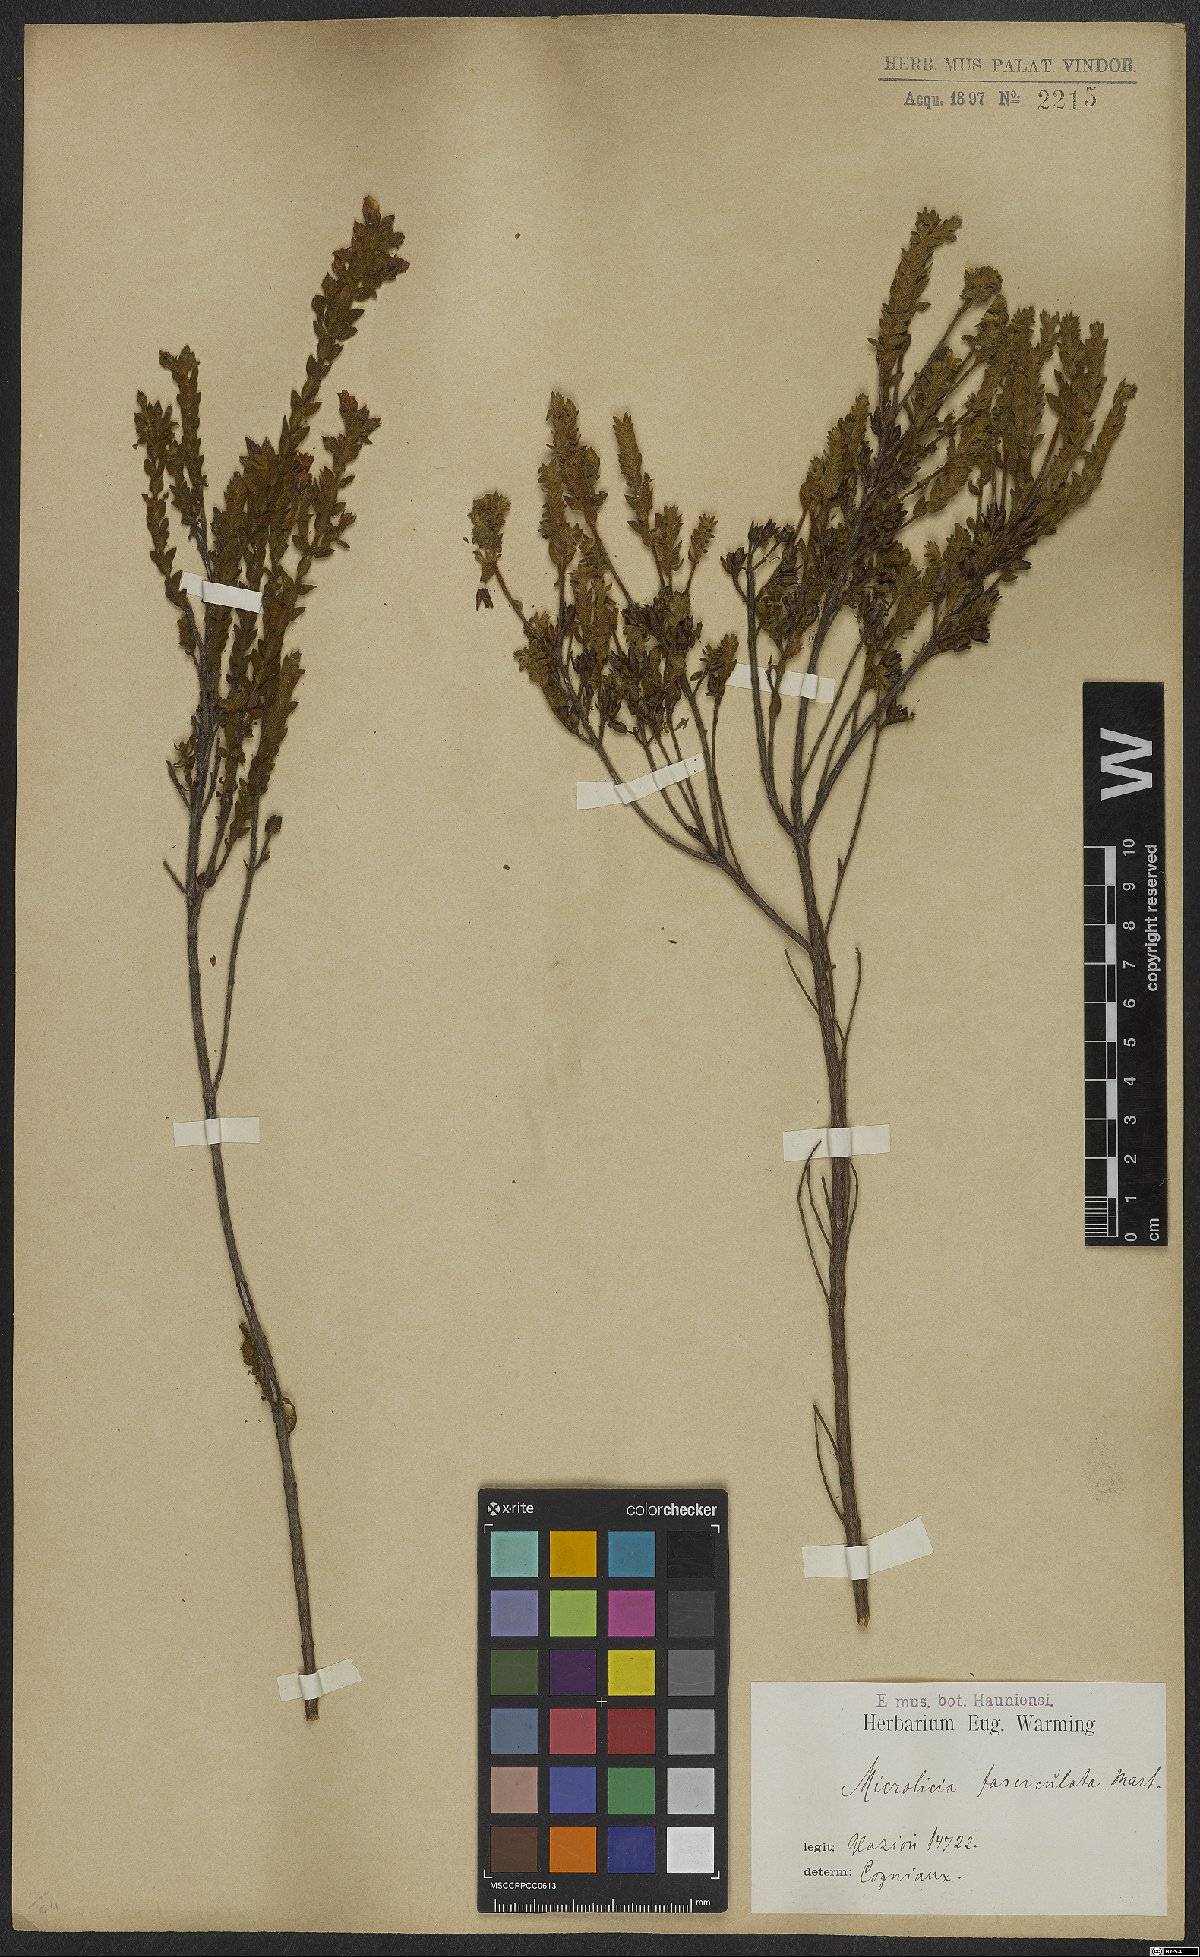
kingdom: Plantae
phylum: Tracheophyta
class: Magnoliopsida
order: Myrtales
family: Melastomataceae
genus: Microlicia
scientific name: Microlicia fasciculata
